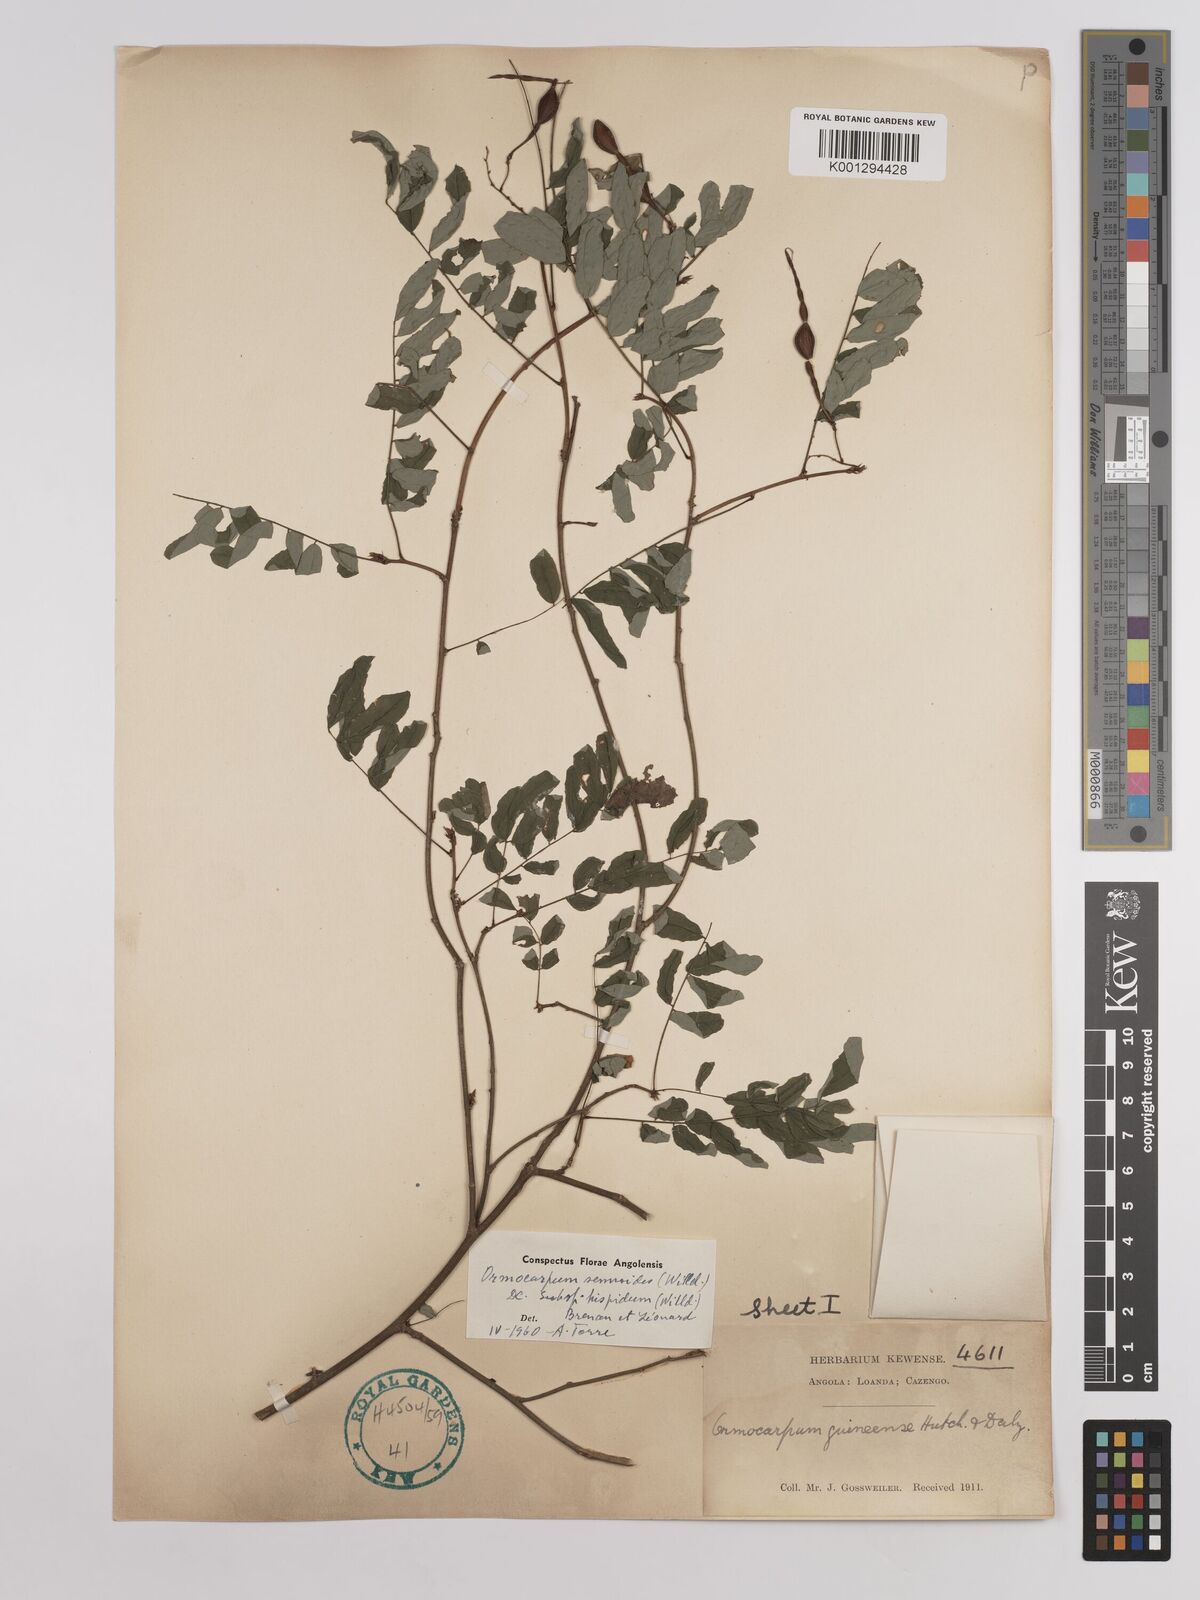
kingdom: Plantae
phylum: Tracheophyta
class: Magnoliopsida
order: Fabales
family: Fabaceae
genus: Ormocarpum
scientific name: Ormocarpum sennoides
